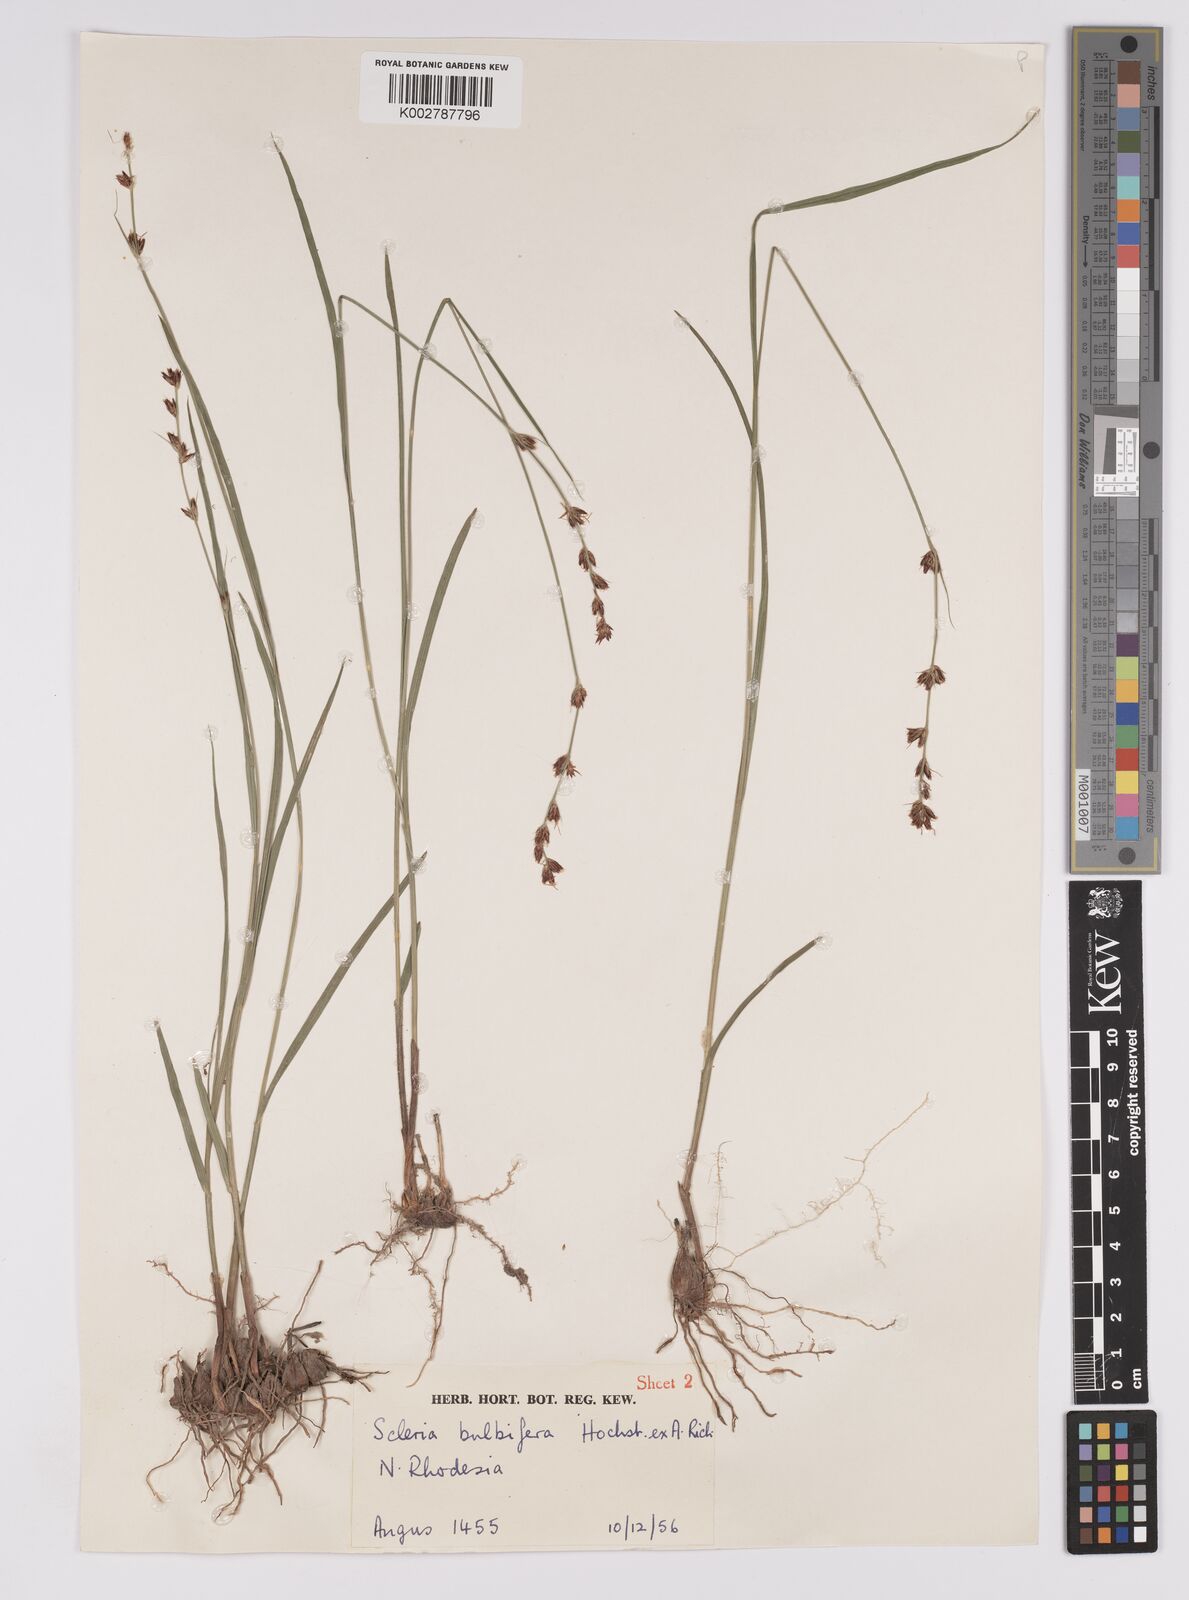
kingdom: Plantae
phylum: Tracheophyta
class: Liliopsida
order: Poales
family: Cyperaceae
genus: Scleria
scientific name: Scleria bulbifera
